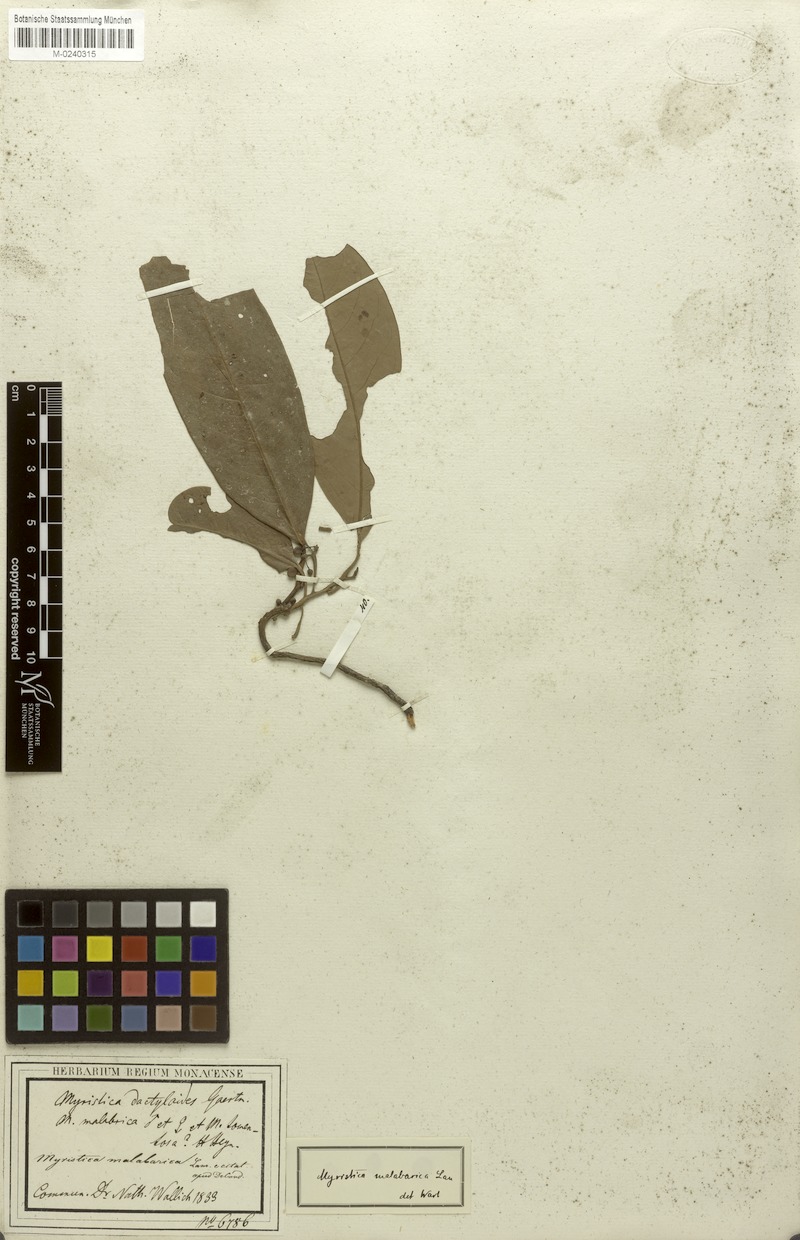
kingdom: Plantae
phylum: Tracheophyta
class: Magnoliopsida
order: Magnoliales
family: Myristicaceae
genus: Myristica
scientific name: Myristica malabarica
